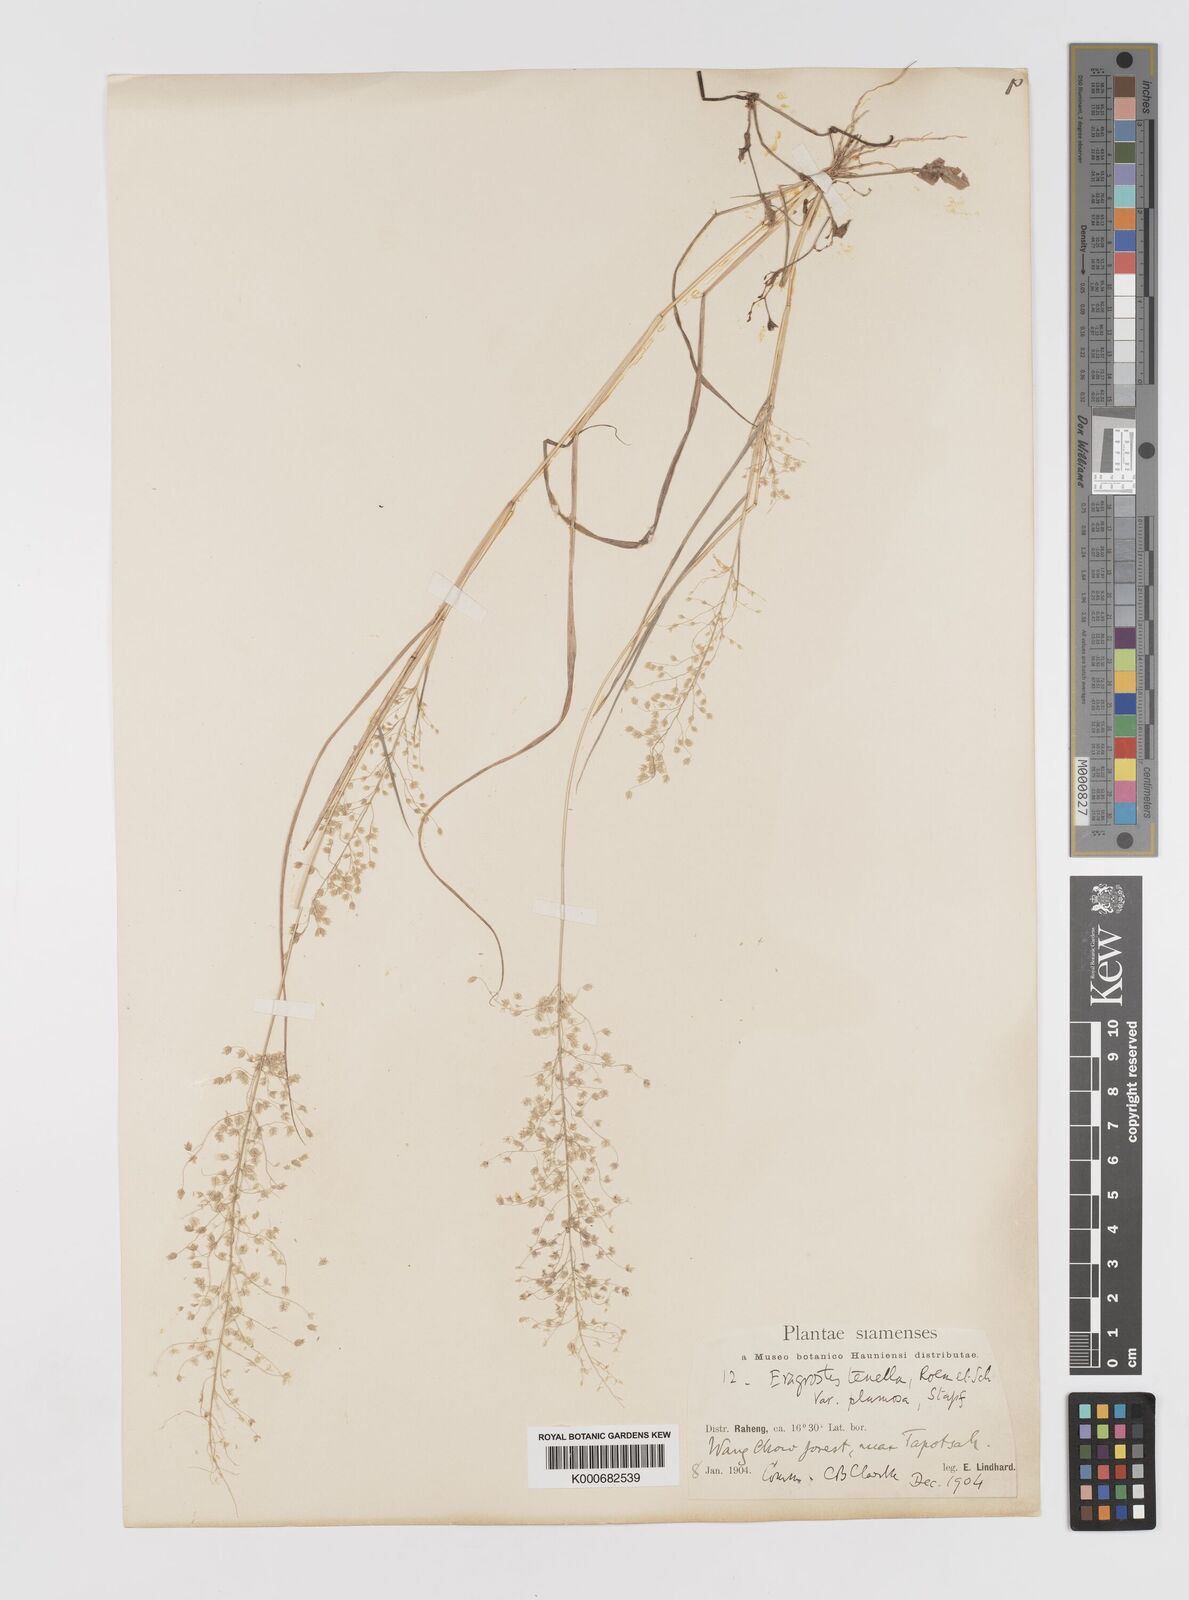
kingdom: Plantae
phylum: Tracheophyta
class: Liliopsida
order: Poales
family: Poaceae
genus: Eragrostis
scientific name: Eragrostis tenella
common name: Japanese lovegrass
